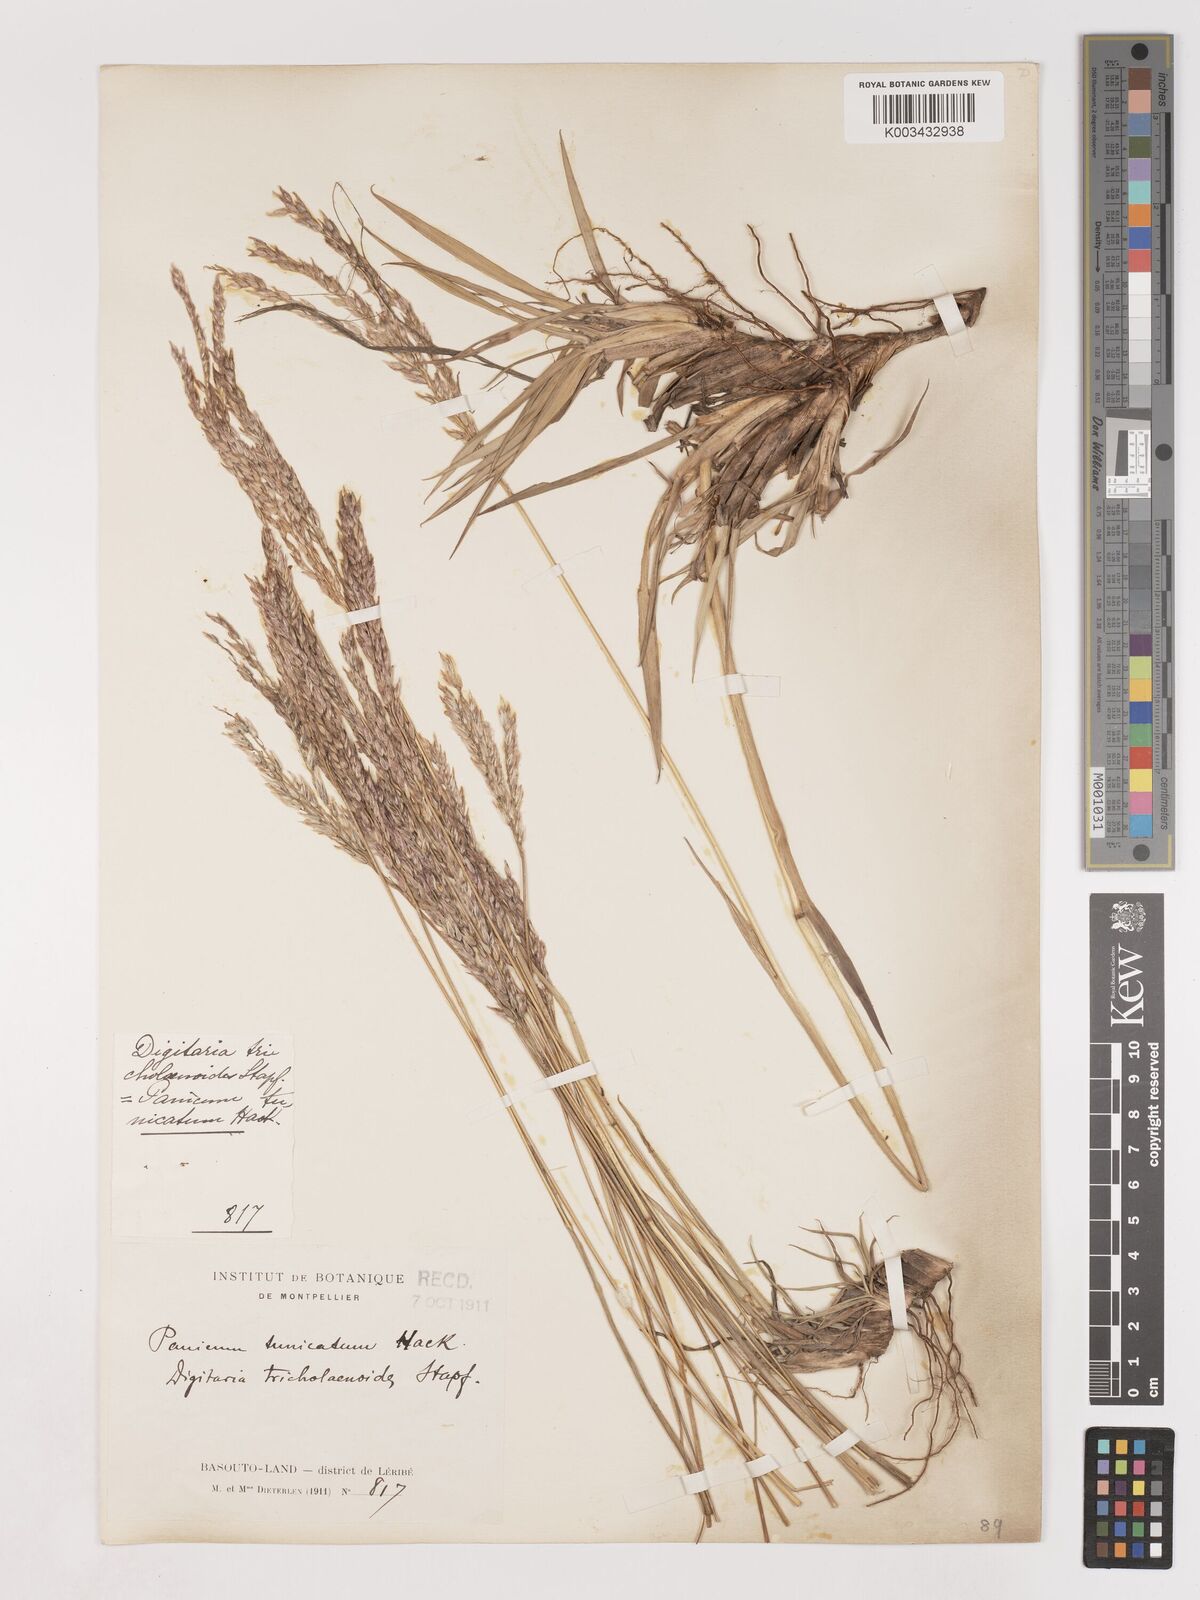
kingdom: Plantae
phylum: Tracheophyta
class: Liliopsida
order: Poales
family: Poaceae
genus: Digitaria
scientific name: Digitaria tricholaenoides
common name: Purple finger grass
